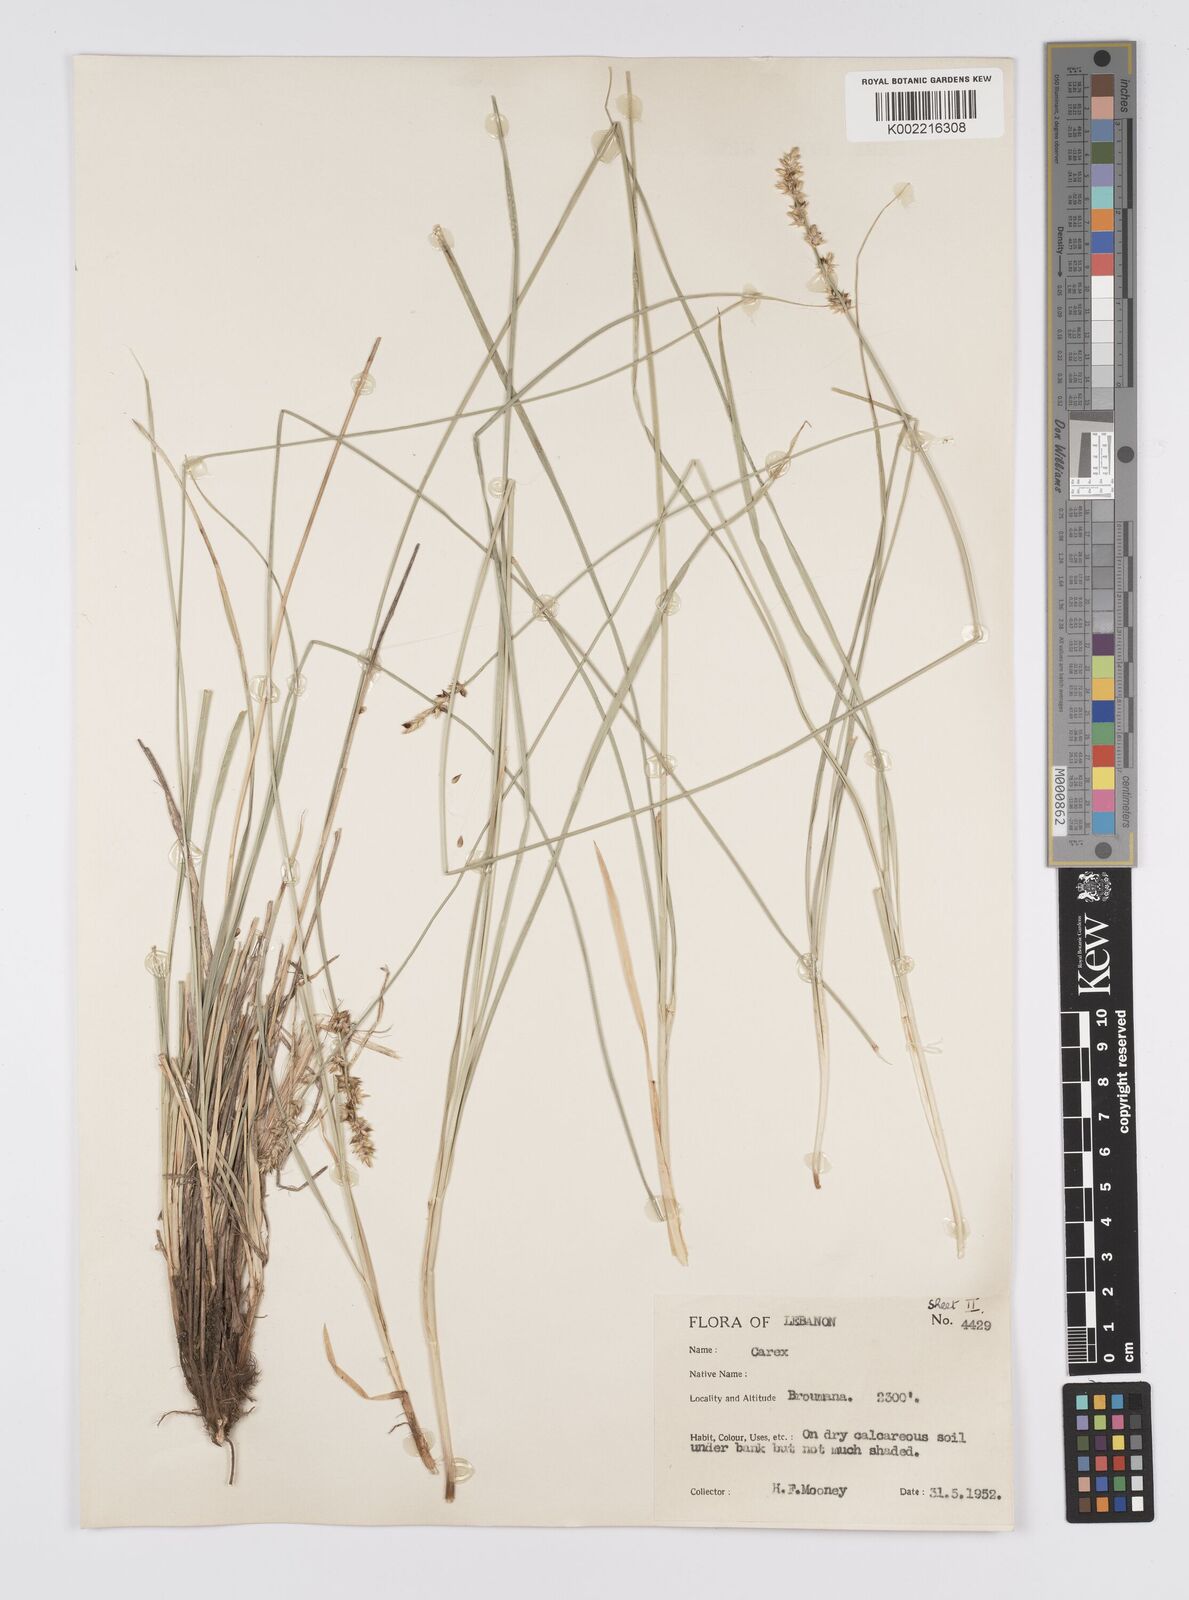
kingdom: Plantae
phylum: Tracheophyta
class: Liliopsida
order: Poales
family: Cyperaceae
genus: Carex
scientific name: Carex coriogyne
